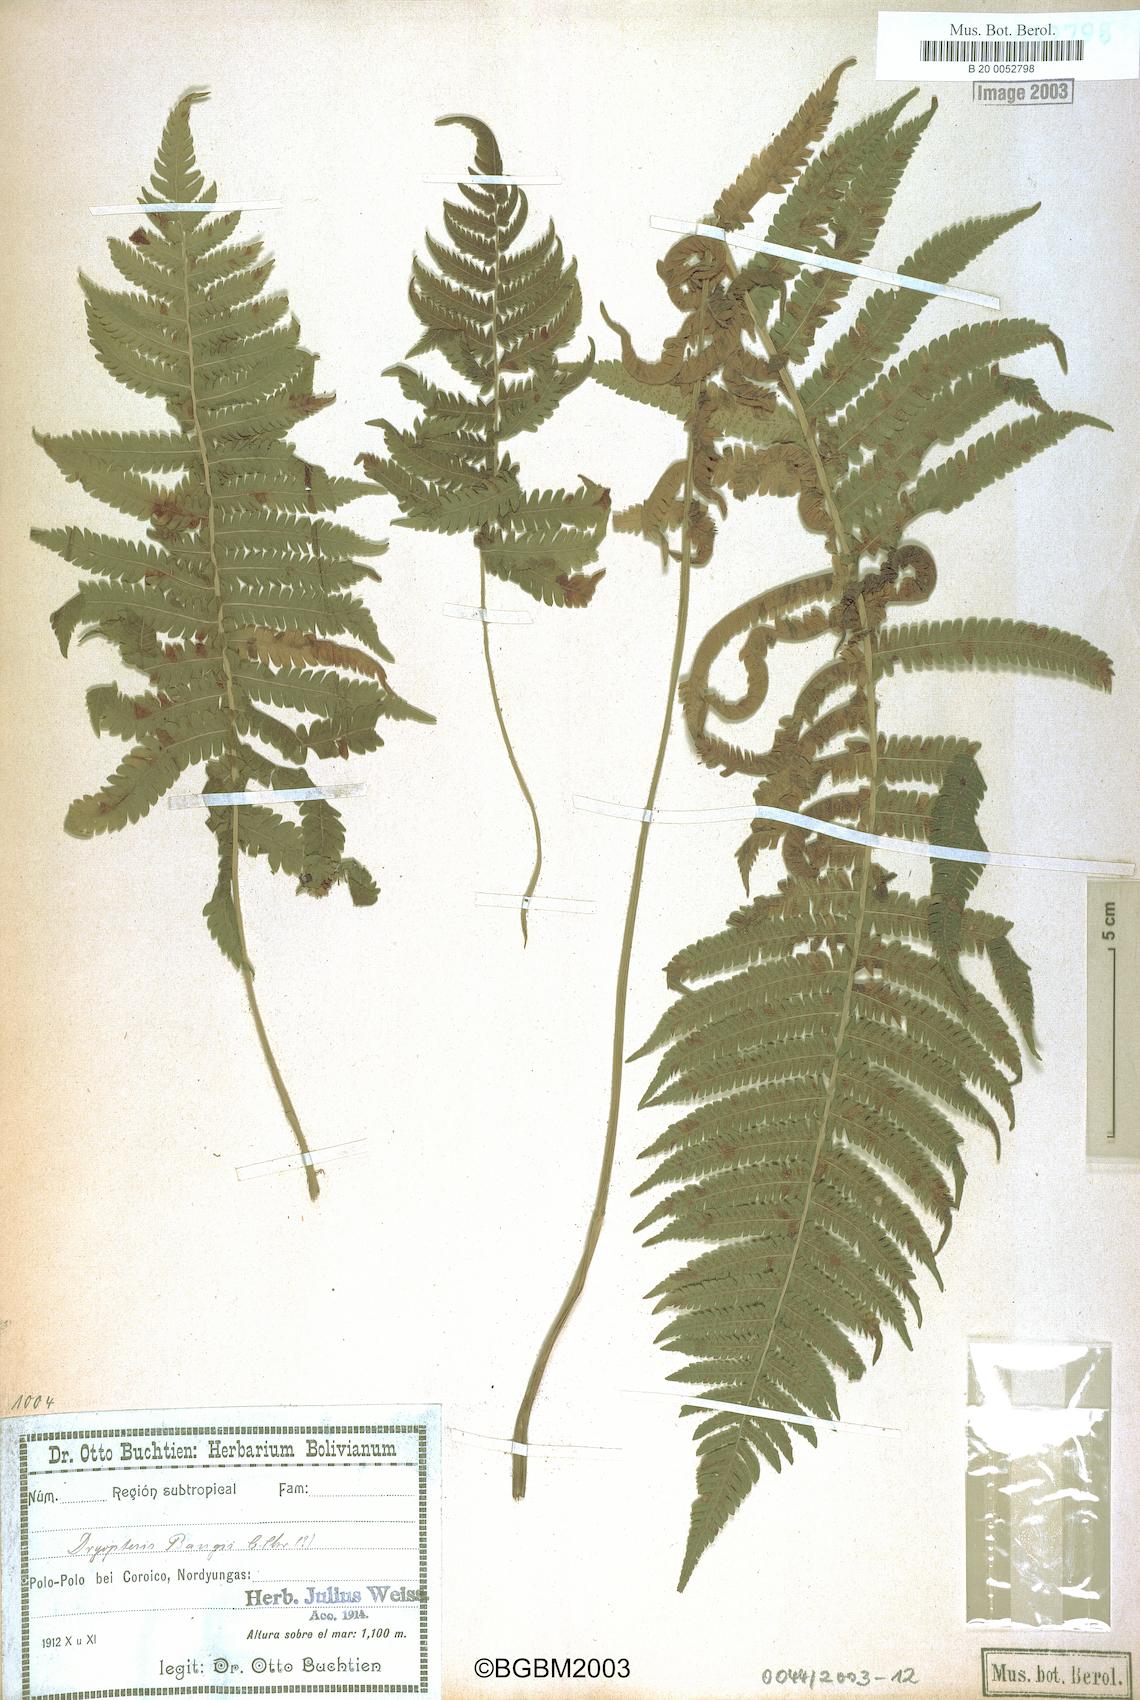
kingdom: Plantae
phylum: Tracheophyta
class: Polypodiopsida
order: Polypodiales
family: Thelypteridaceae
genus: Christella
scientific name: Christella conspersa
